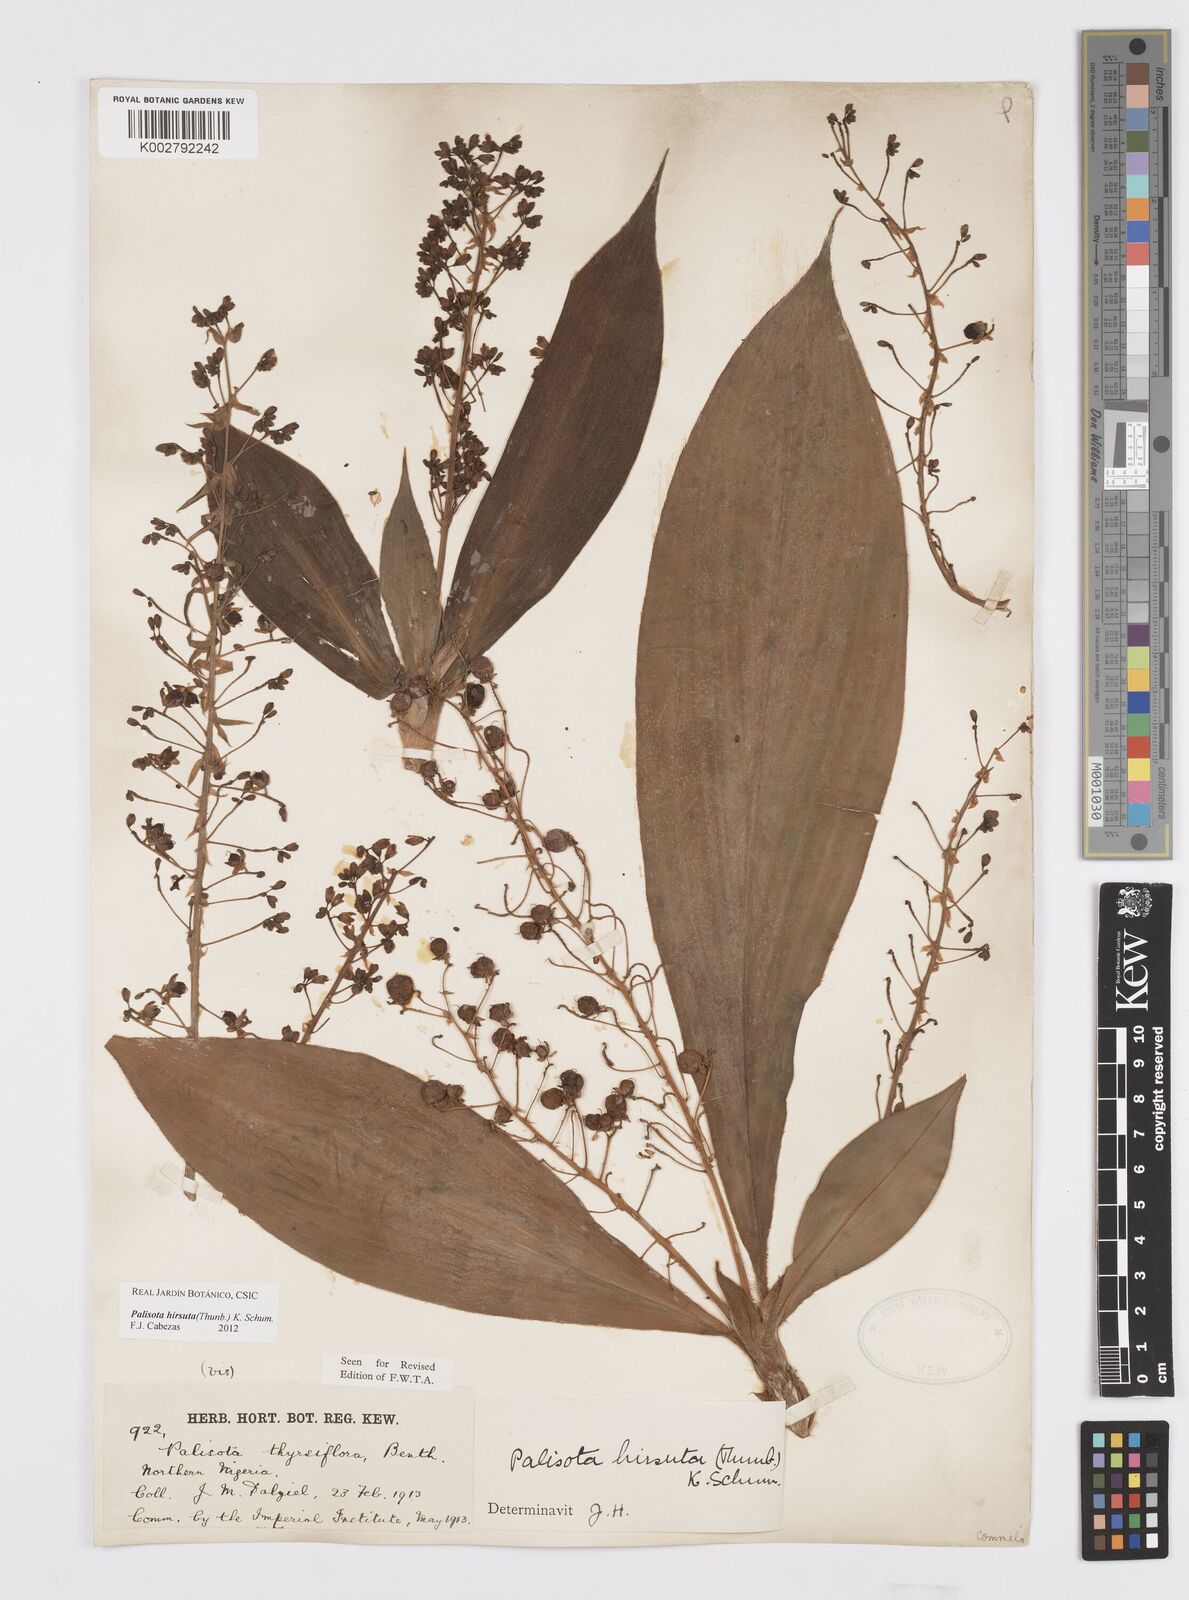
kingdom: Plantae
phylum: Tracheophyta
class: Liliopsida
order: Commelinales
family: Commelinaceae
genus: Palisota
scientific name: Palisota hirsuta
